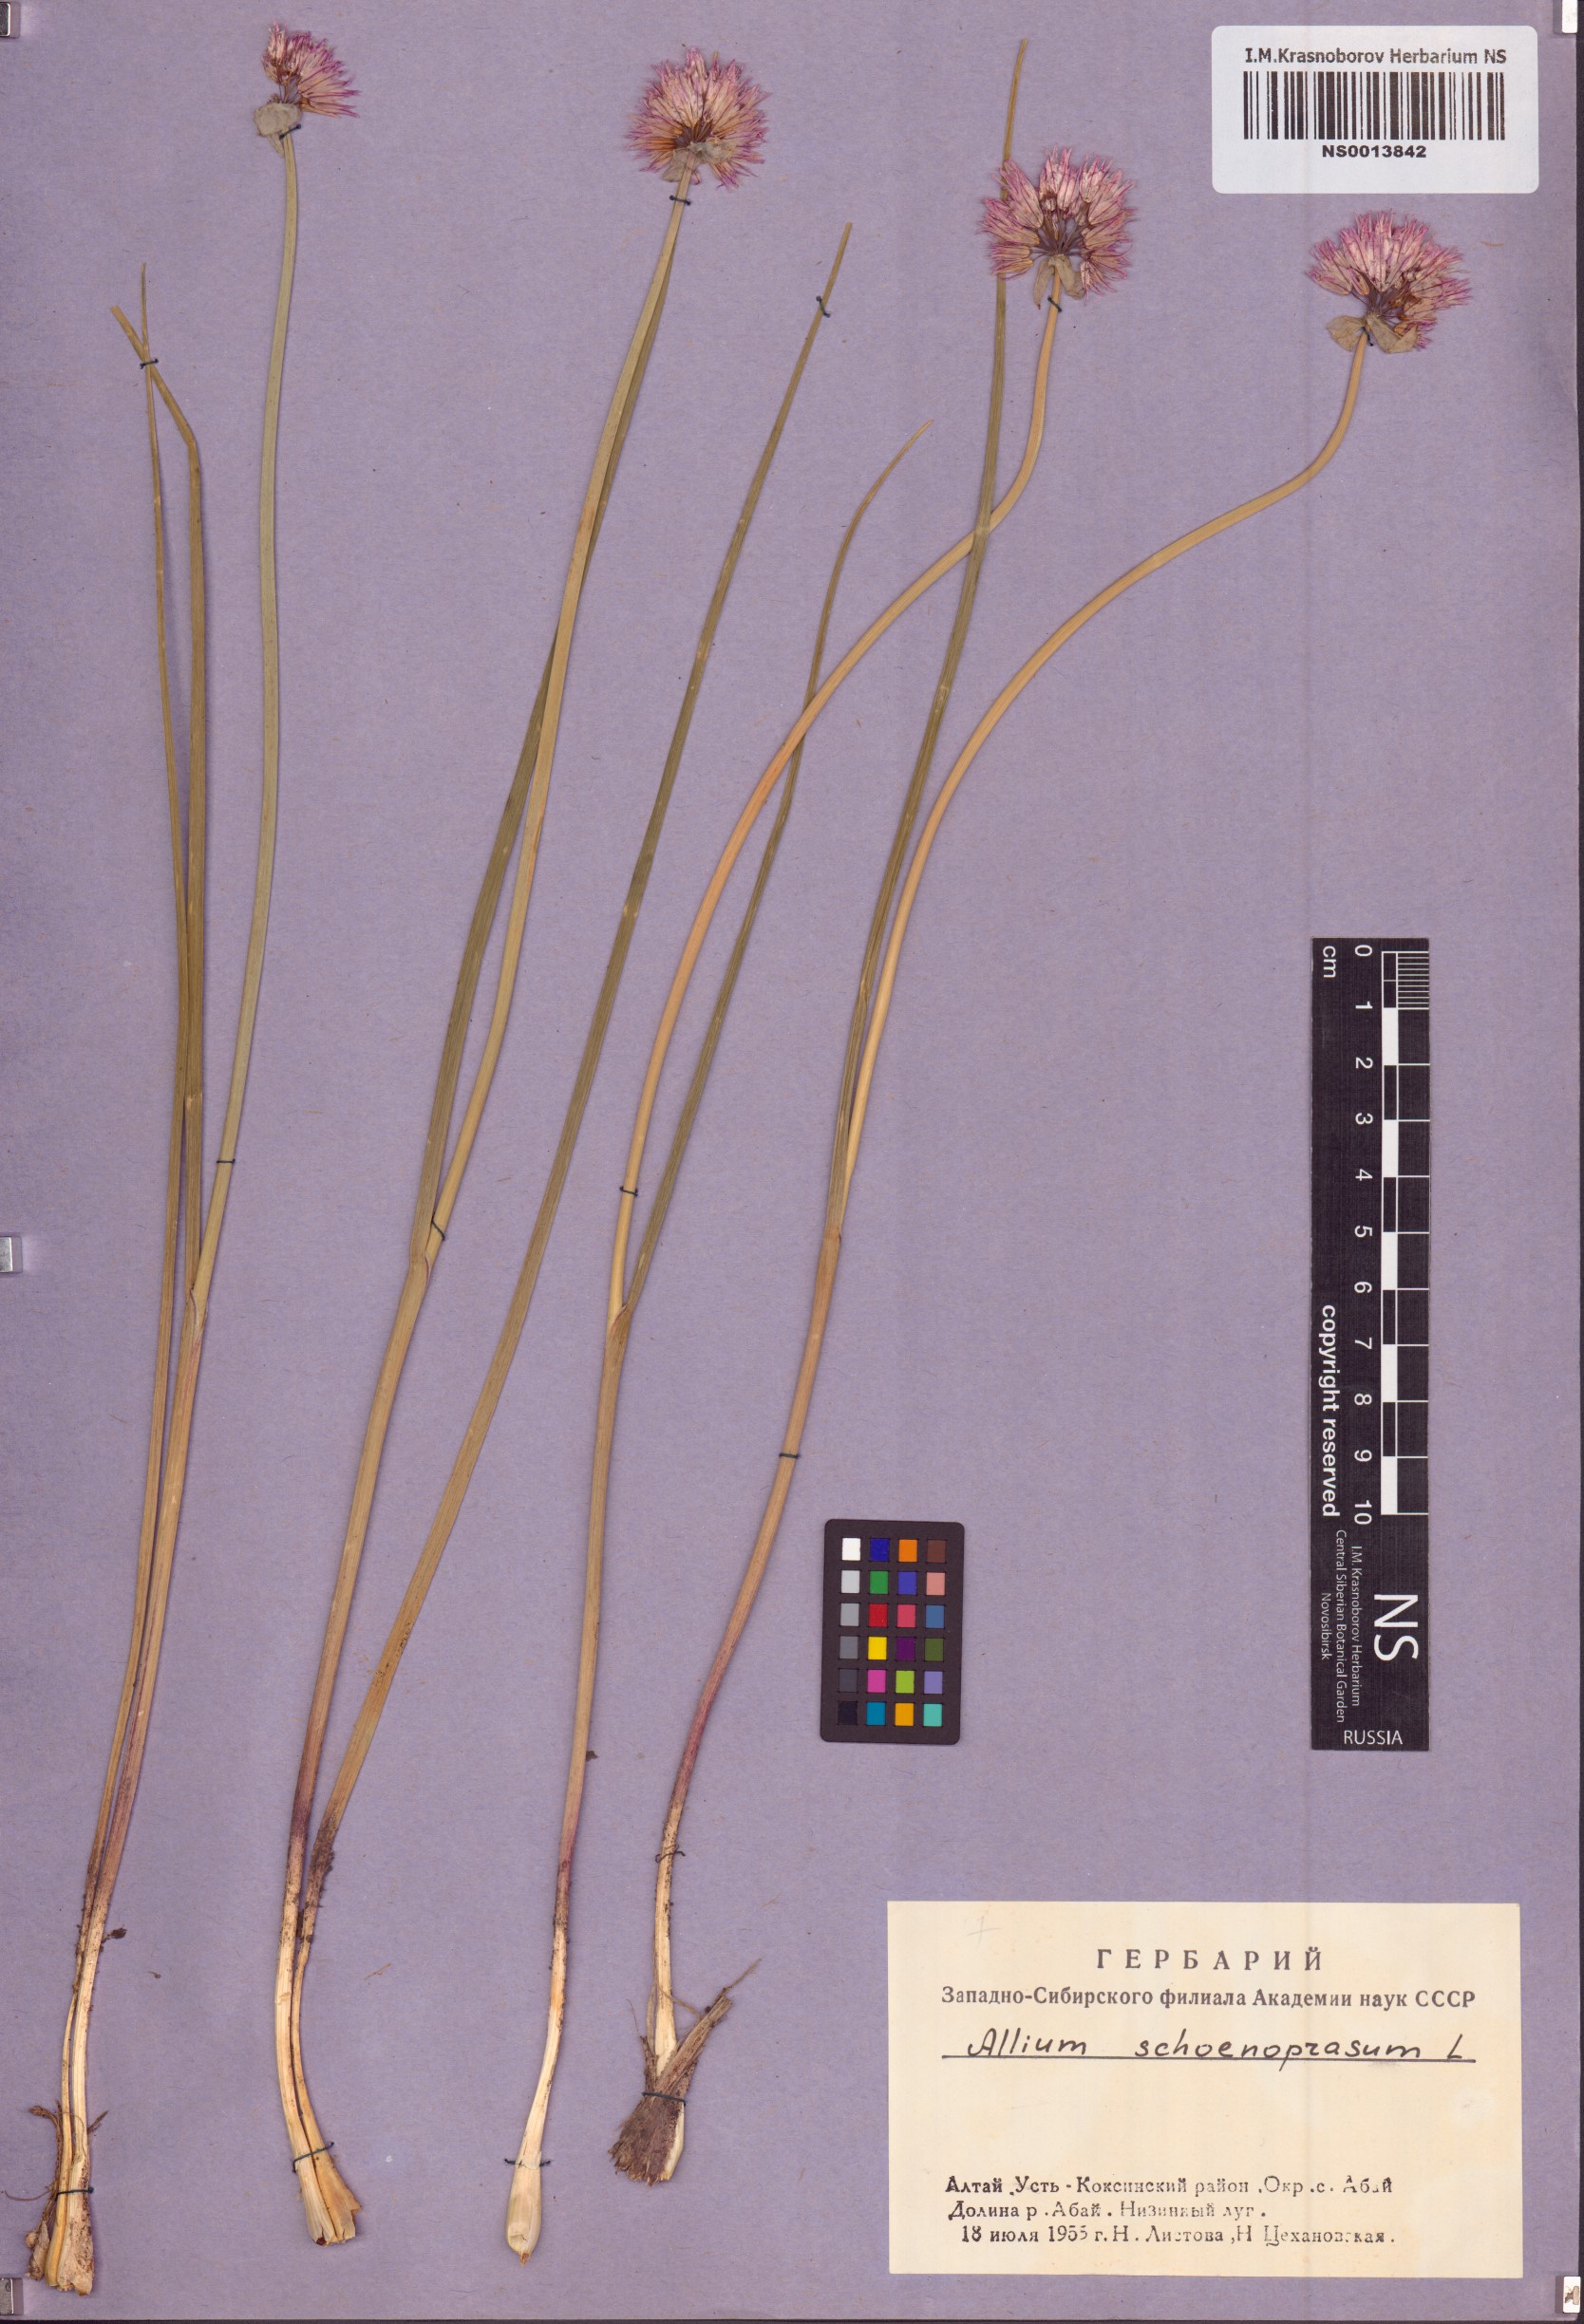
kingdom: Plantae
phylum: Tracheophyta
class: Liliopsida
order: Asparagales
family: Amaryllidaceae
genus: Allium
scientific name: Allium schoenoprasum
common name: Chives
